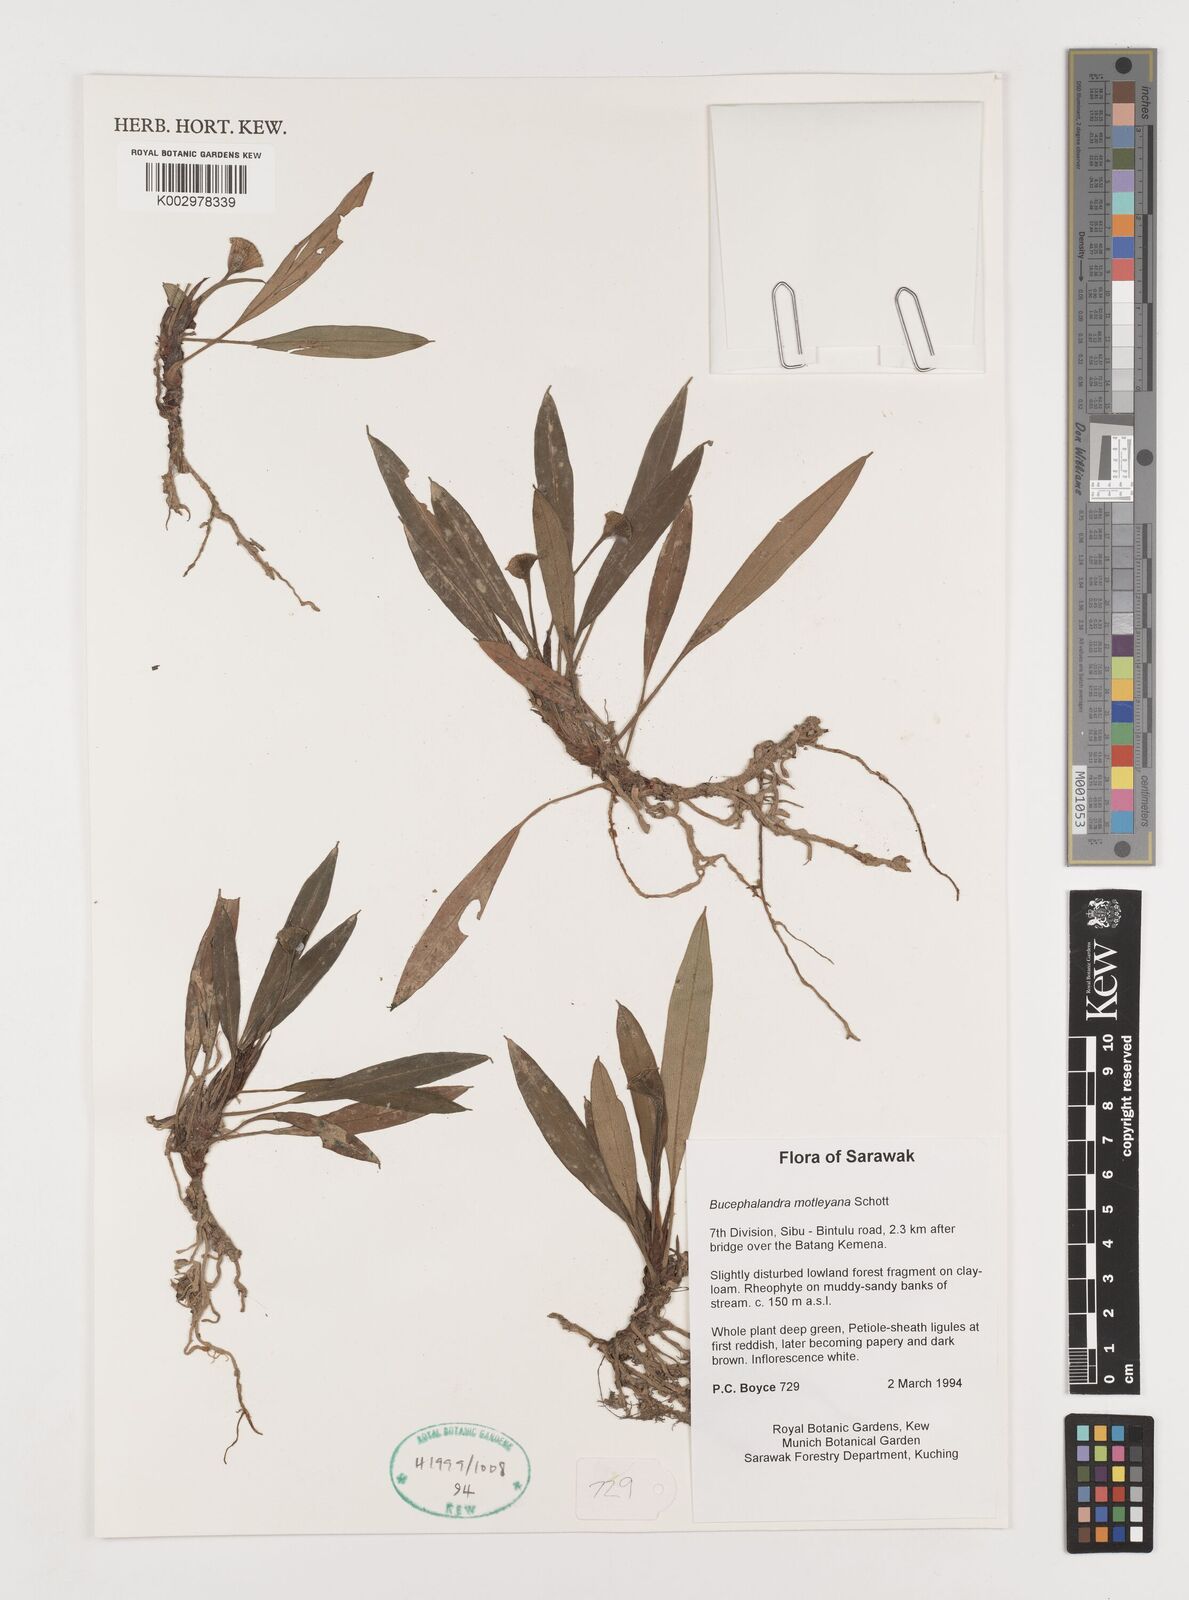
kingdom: Plantae
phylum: Tracheophyta
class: Liliopsida
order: Alismatales
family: Araceae
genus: Bucephalandra
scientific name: Bucephalandra motleyana
